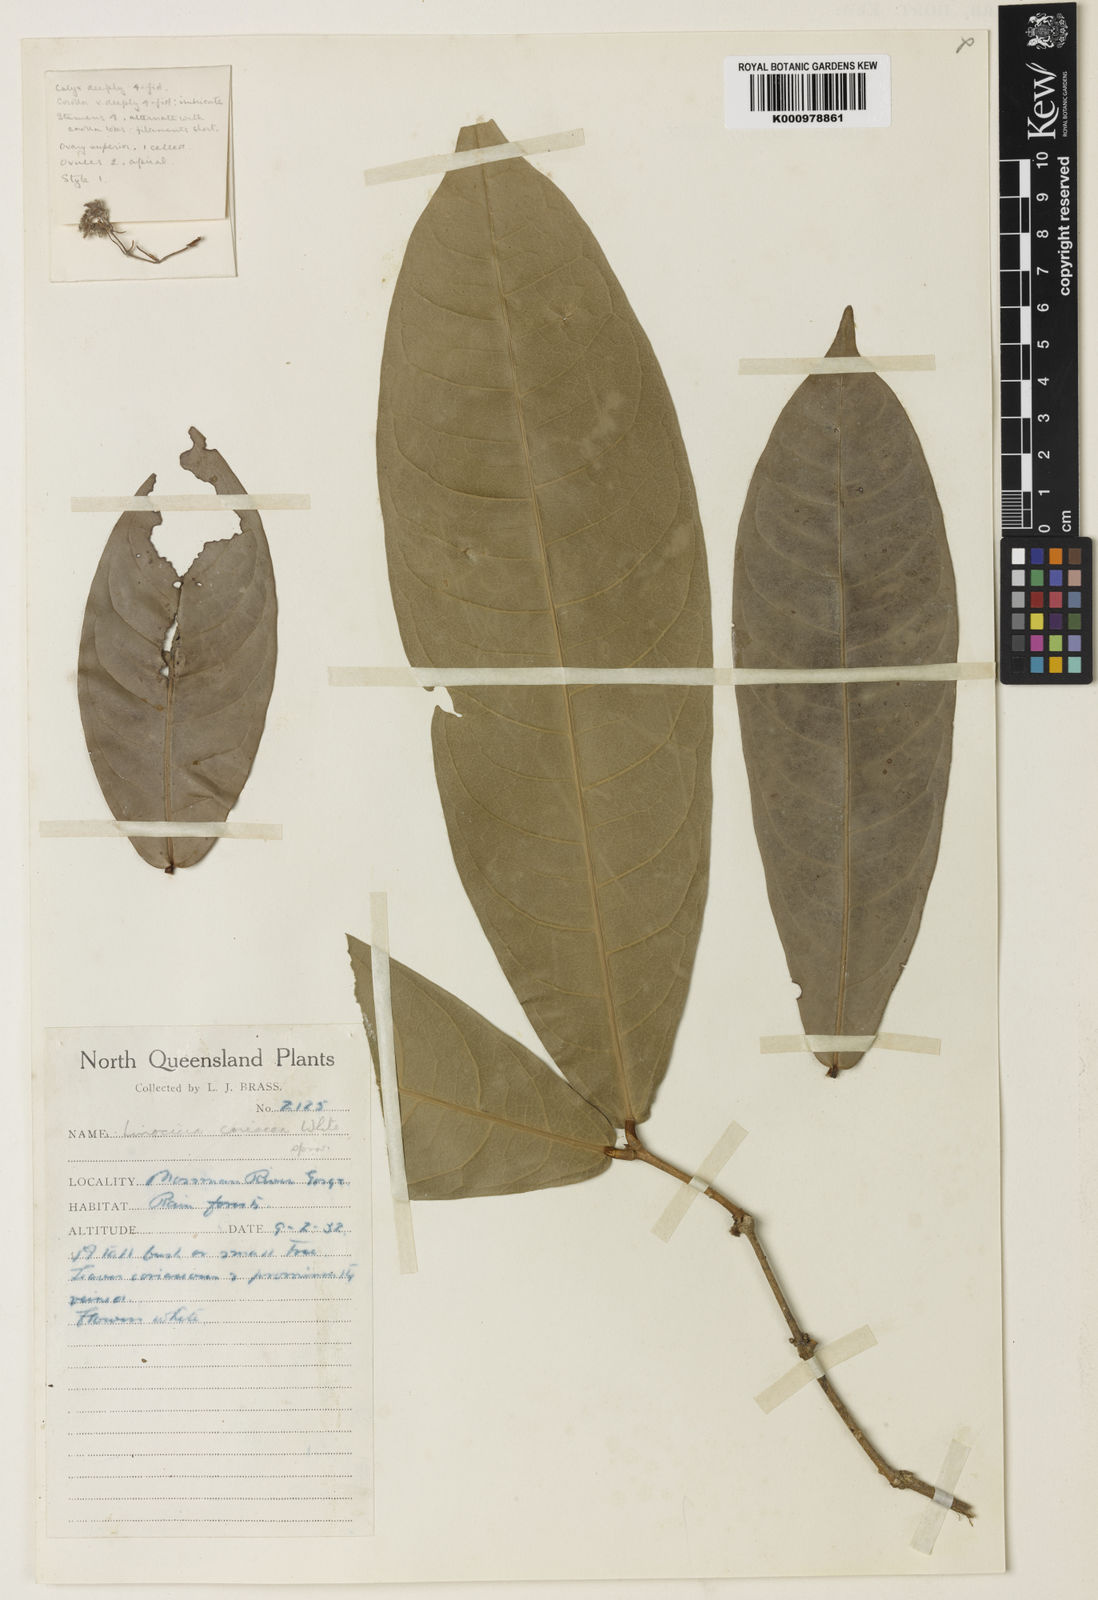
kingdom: Plantae
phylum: Tracheophyta
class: Magnoliopsida
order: Lamiales
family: Oleaceae
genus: Chionanthus
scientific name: Chionanthus sleumeri
